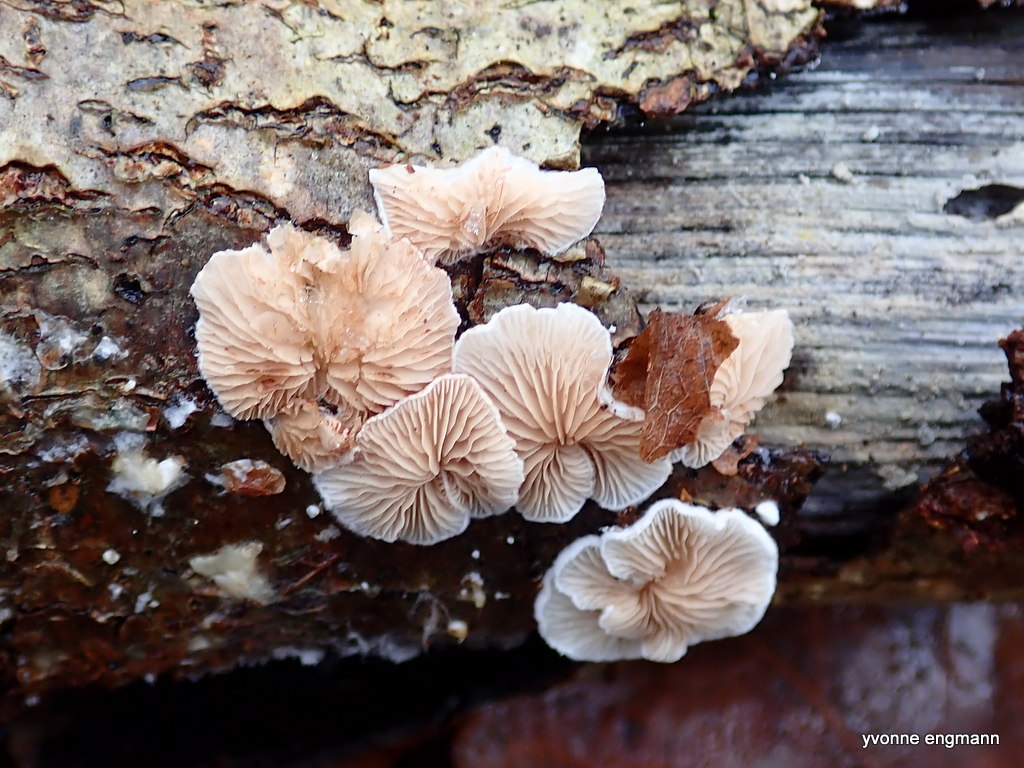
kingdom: Fungi
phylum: Basidiomycota
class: Agaricomycetes
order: Agaricales
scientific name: Agaricales
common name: champignonordenen
